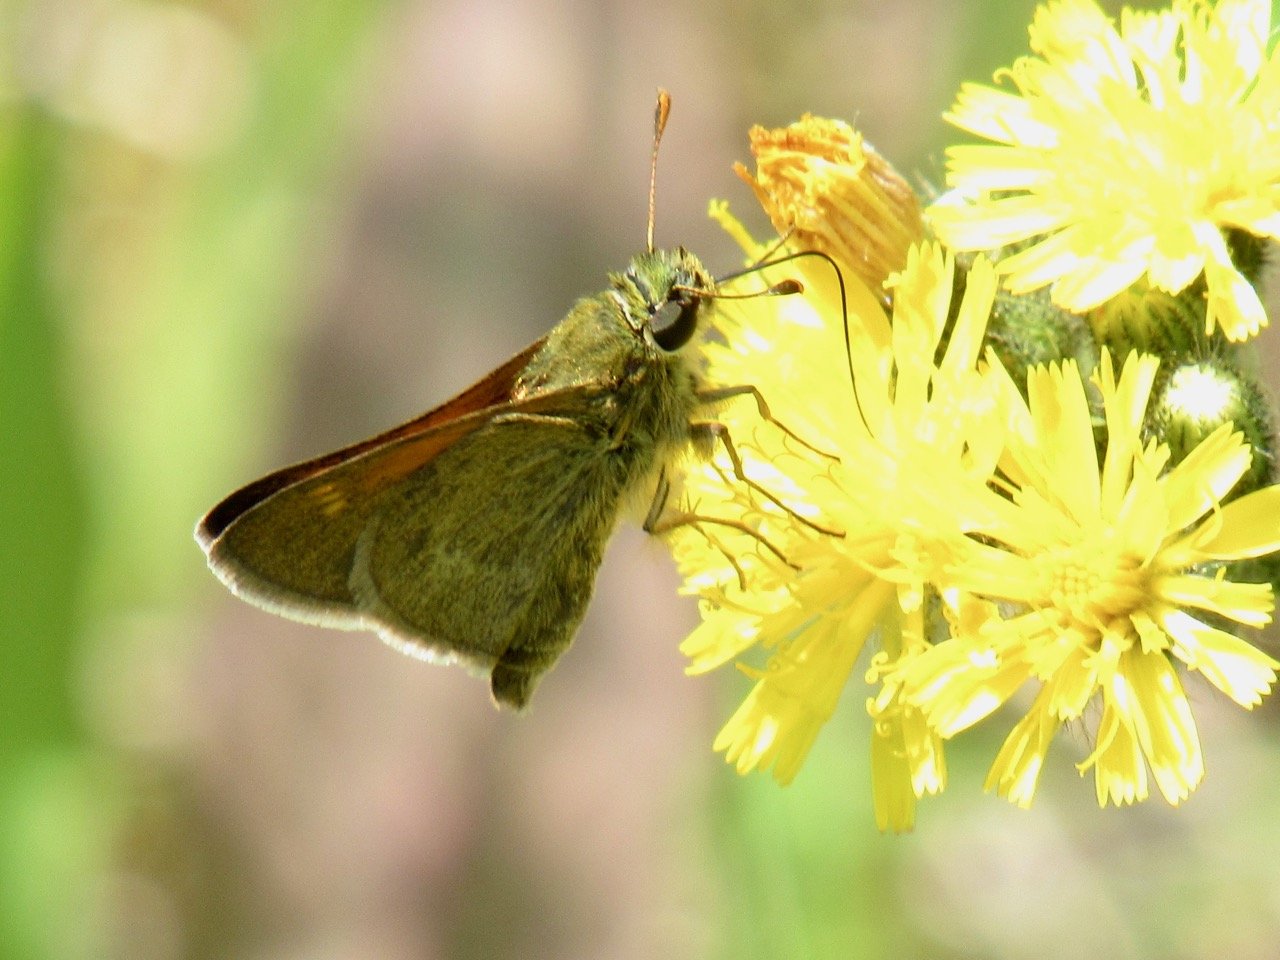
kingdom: Animalia
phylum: Arthropoda
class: Insecta
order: Lepidoptera
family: Hesperiidae
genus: Polites
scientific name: Polites themistocles
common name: Tawny-edged Skipper
